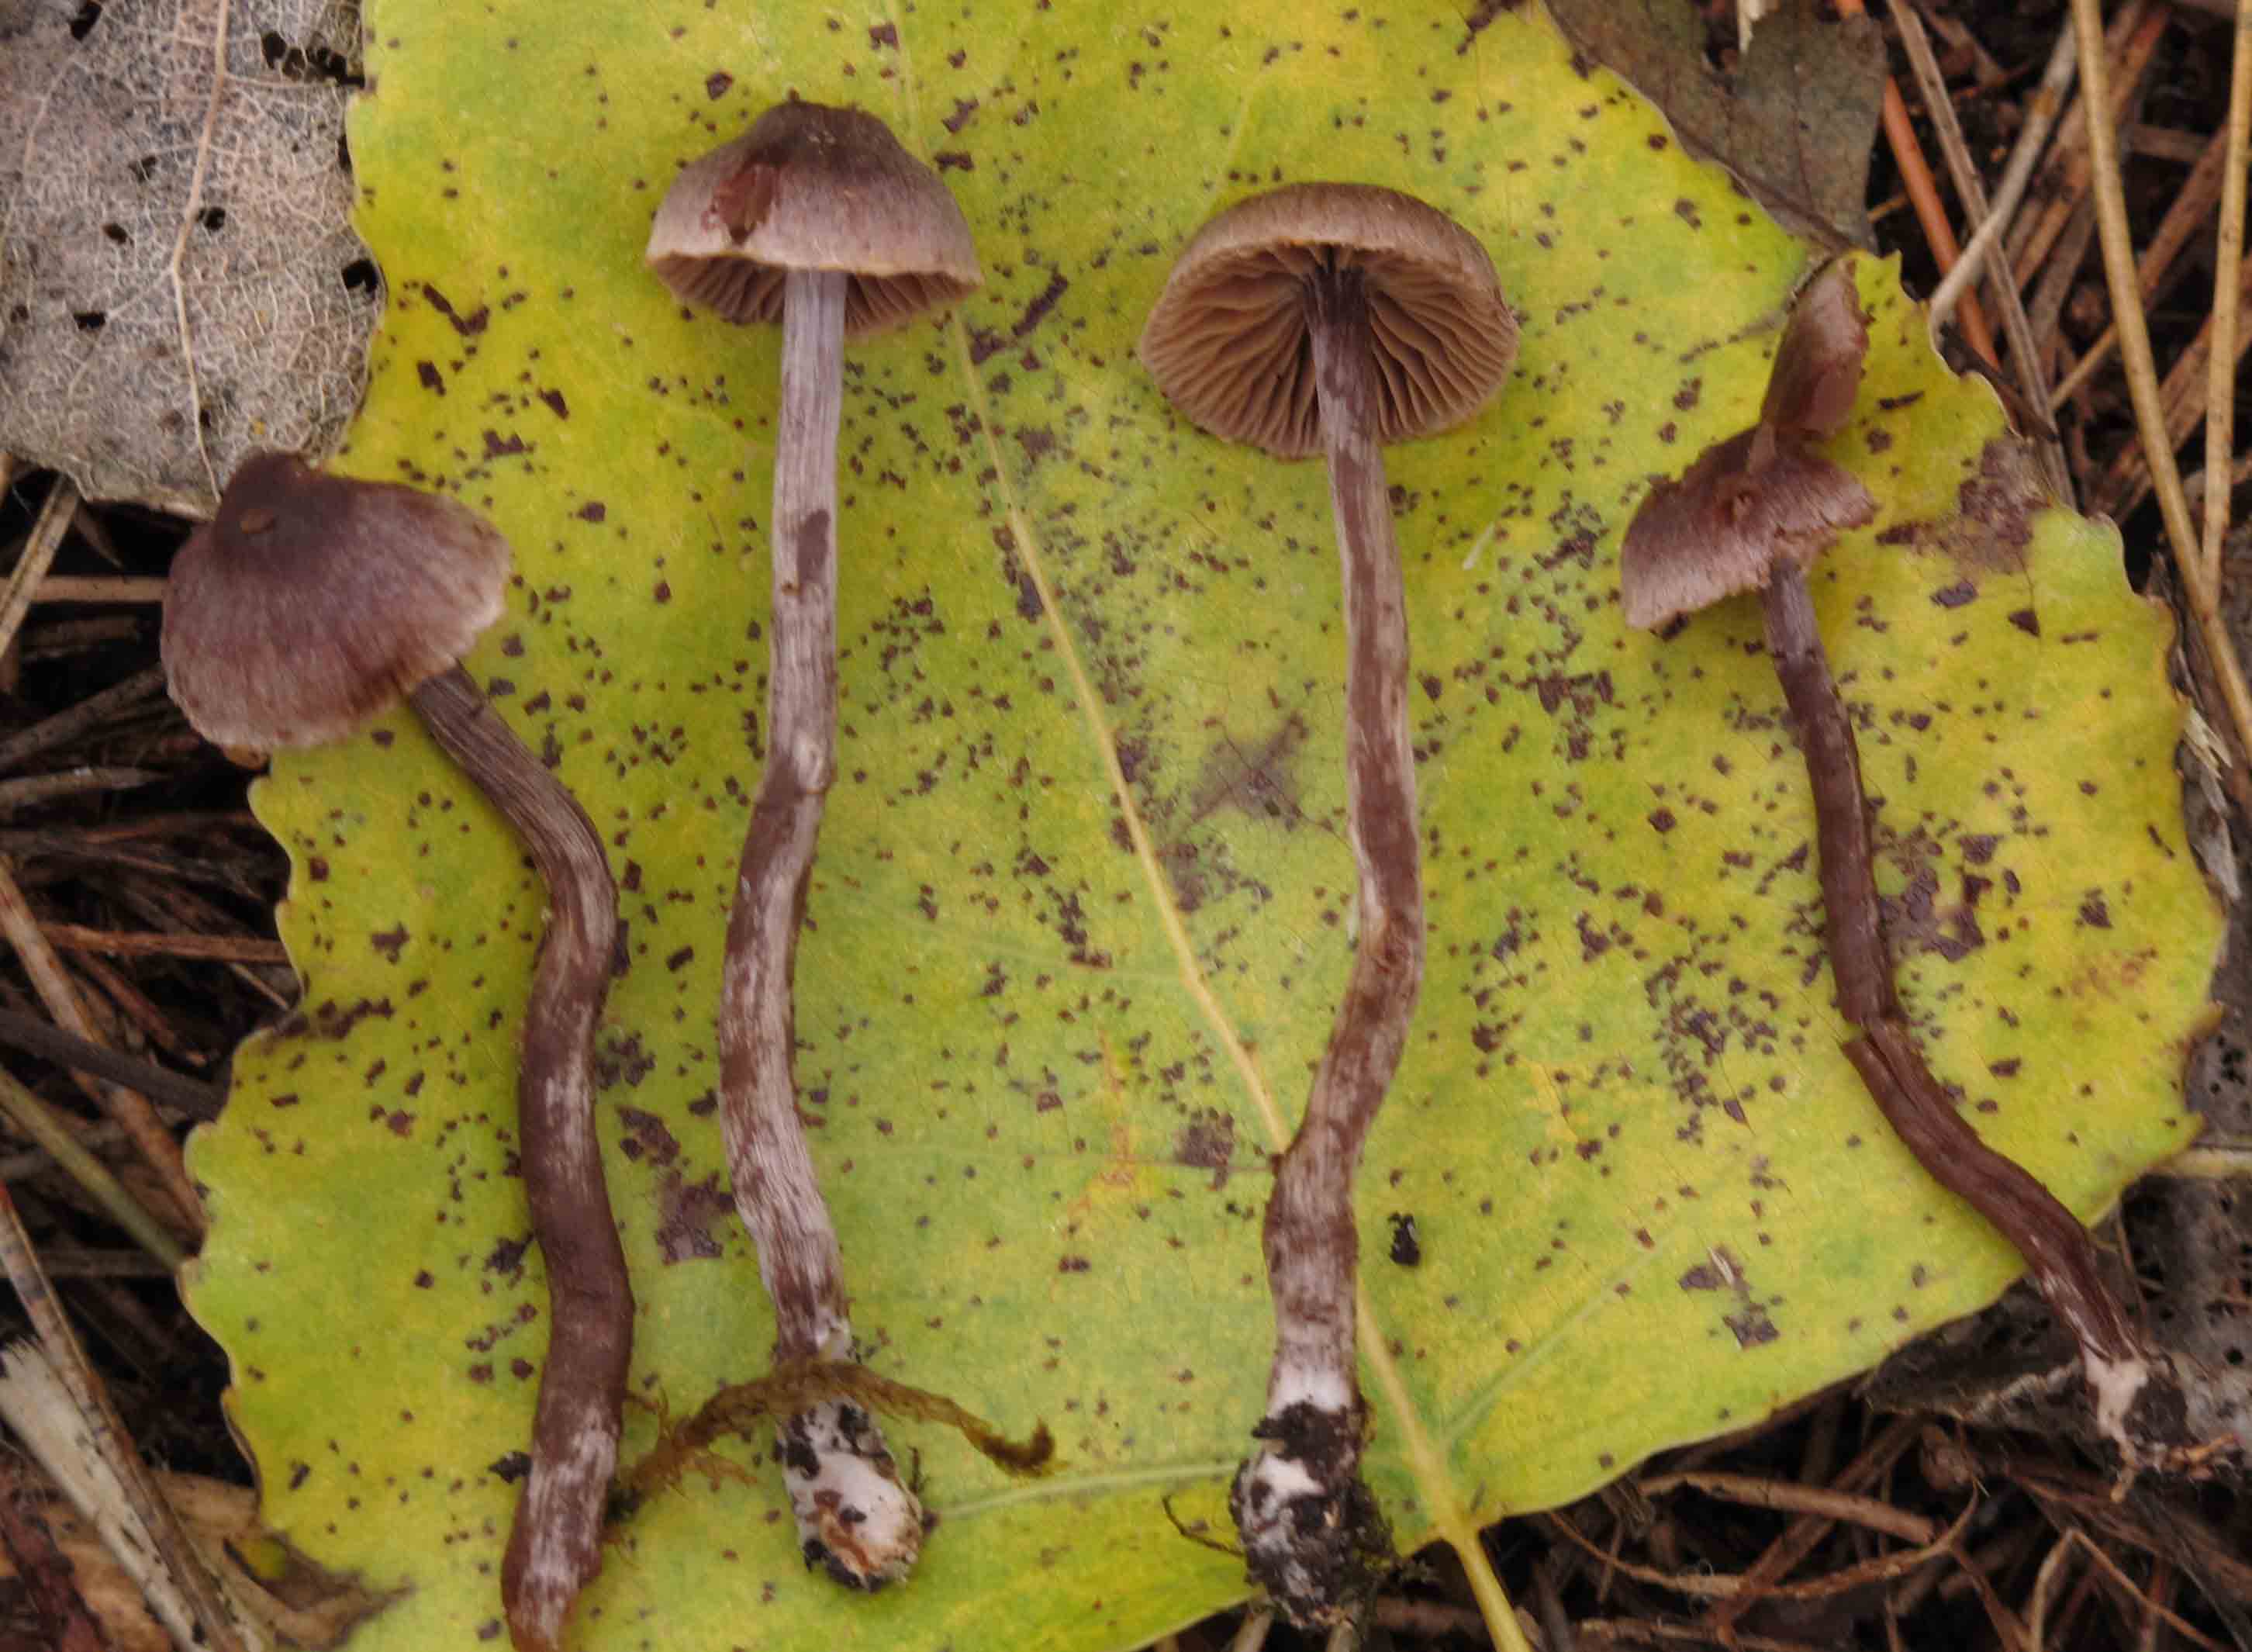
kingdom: Fungi
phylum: Basidiomycota
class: Agaricomycetes
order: Agaricales
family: Cortinariaceae
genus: Cortinarius
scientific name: Cortinarius griseocarneus
